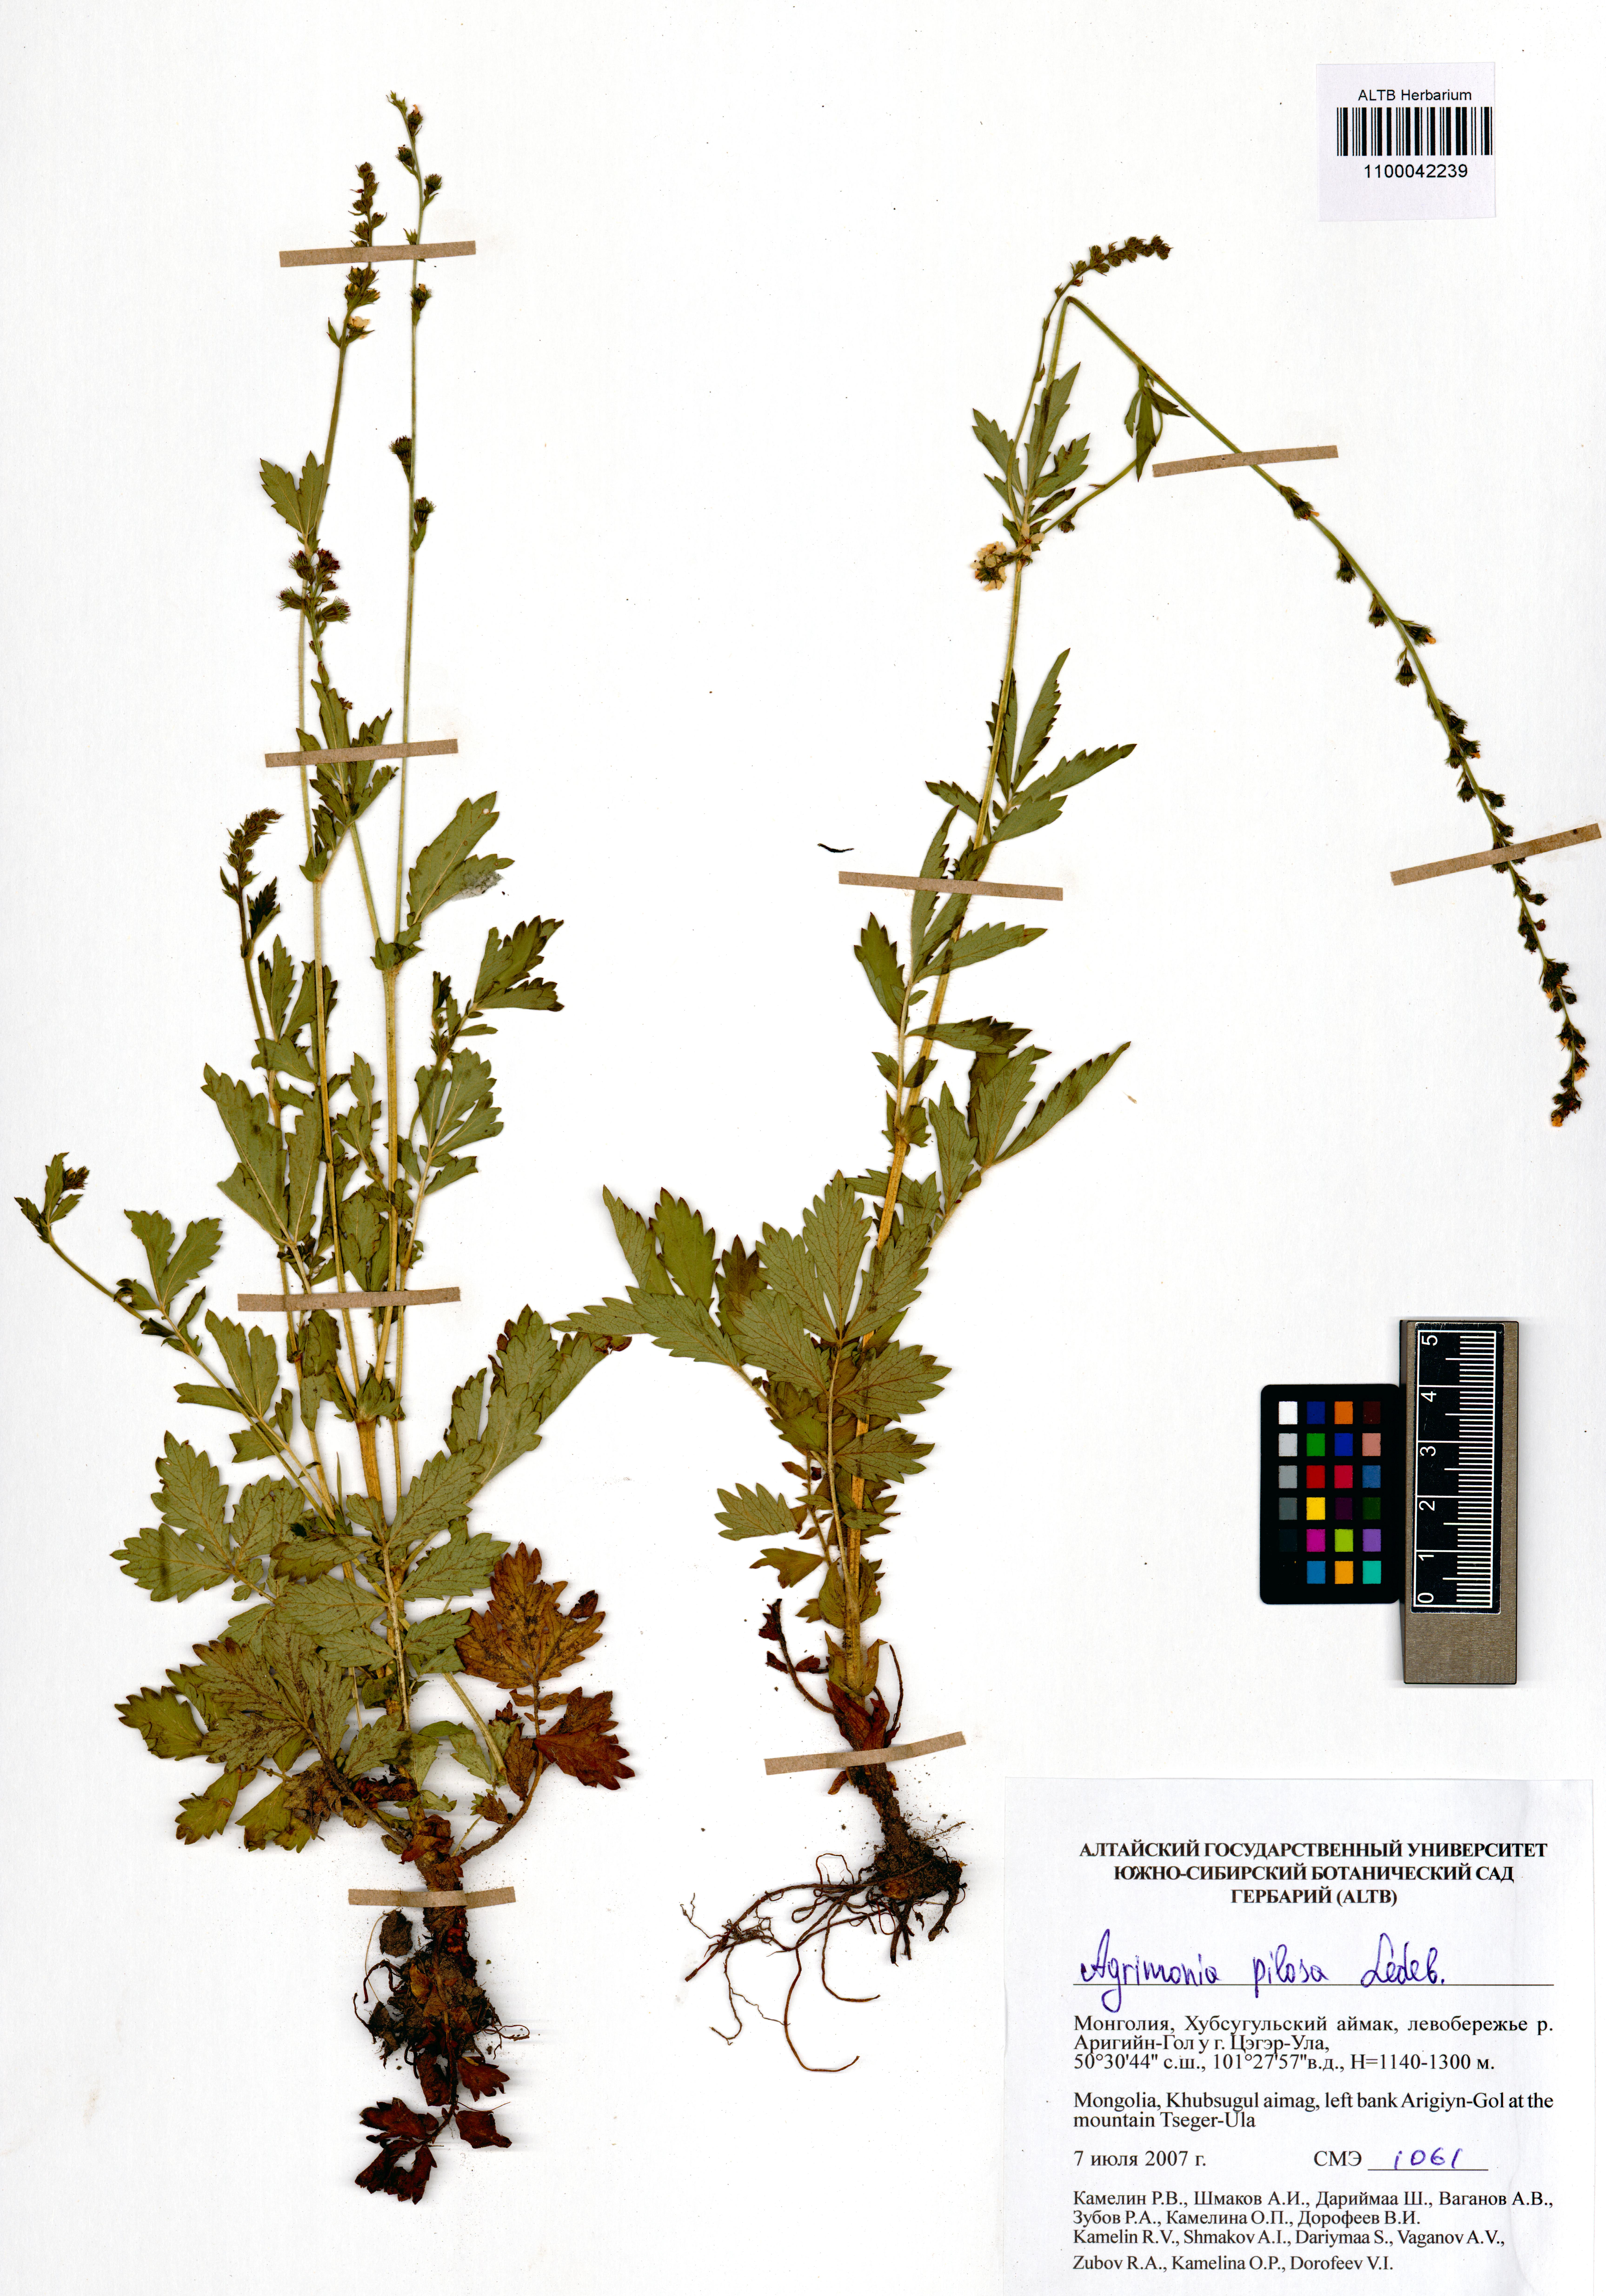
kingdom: Plantae
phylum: Tracheophyta
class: Magnoliopsida
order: Rosales
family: Rosaceae
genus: Agrimonia
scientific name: Agrimonia pilosa
